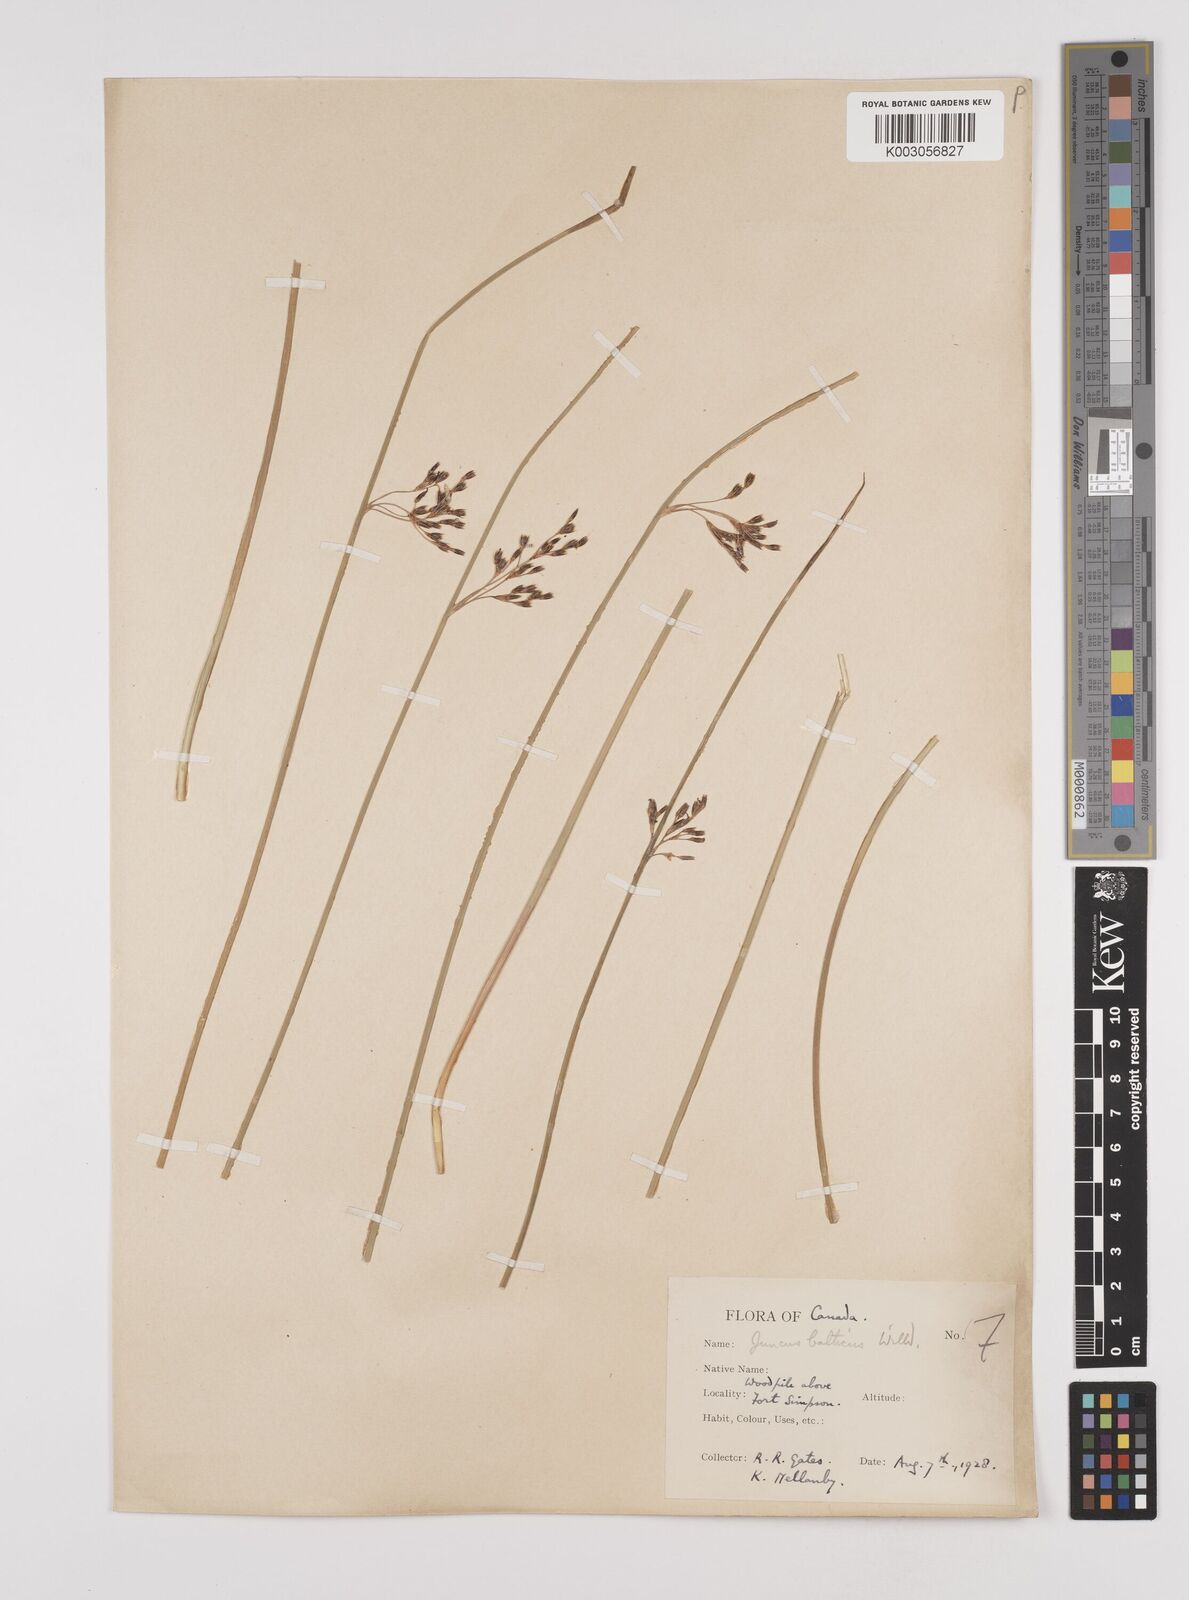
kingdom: Plantae
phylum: Tracheophyta
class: Liliopsida
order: Poales
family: Juncaceae
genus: Juncus
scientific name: Juncus balticus
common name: Baltic rush
